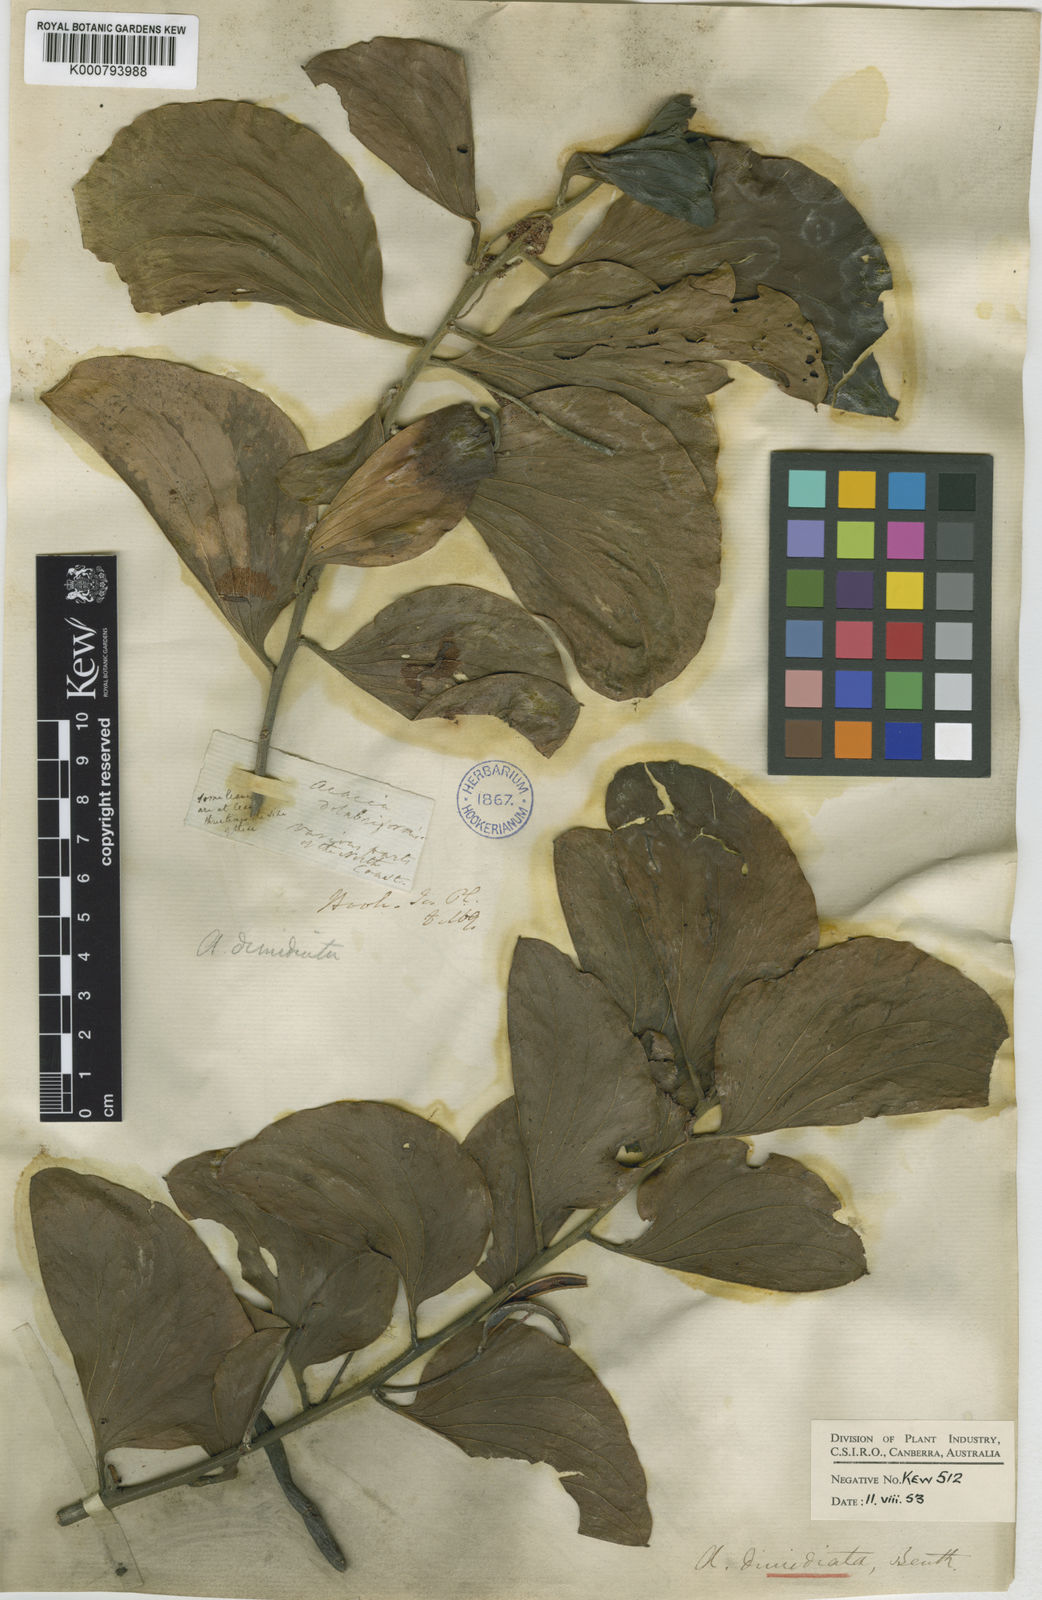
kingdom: Plantae
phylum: Tracheophyta
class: Magnoliopsida
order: Fabales
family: Fabaceae
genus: Acacia
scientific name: Acacia dimidiata
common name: Swamp wattle
